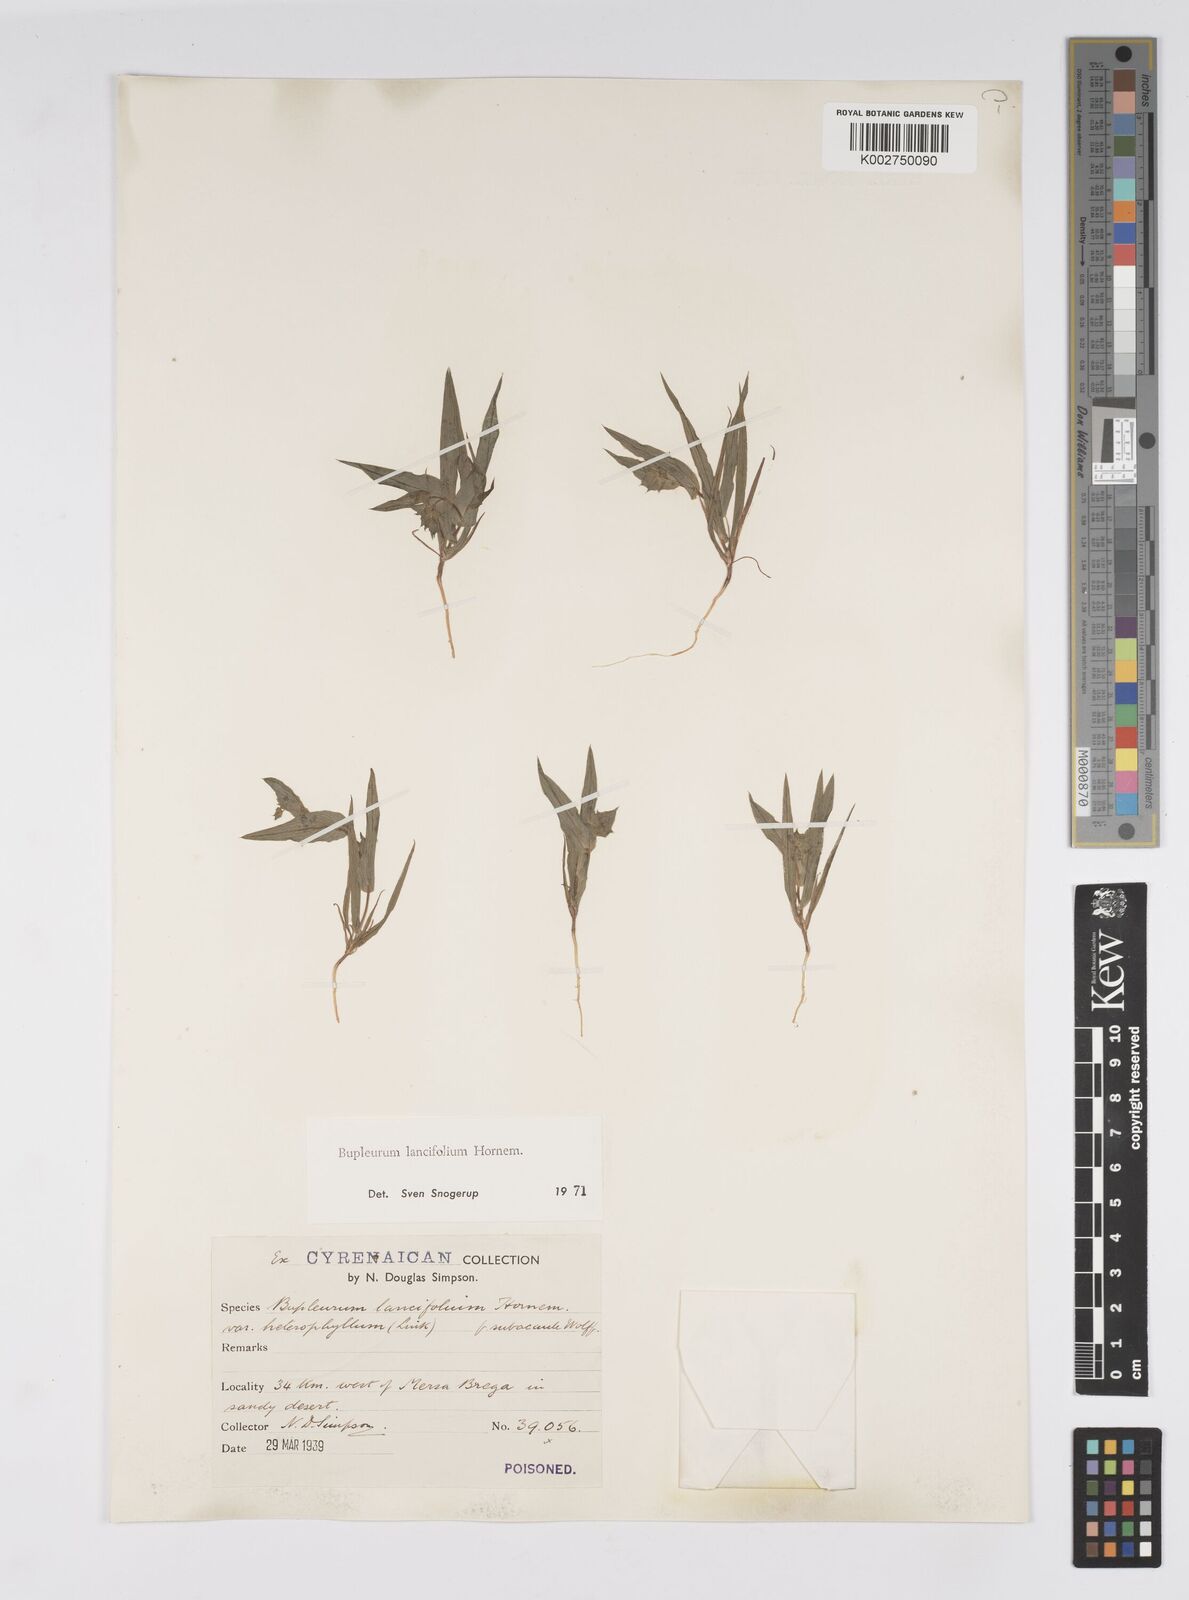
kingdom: Plantae
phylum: Tracheophyta
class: Magnoliopsida
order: Apiales
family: Apiaceae
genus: Bupleurum
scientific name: Bupleurum lancifolium
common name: False thorow-wax
